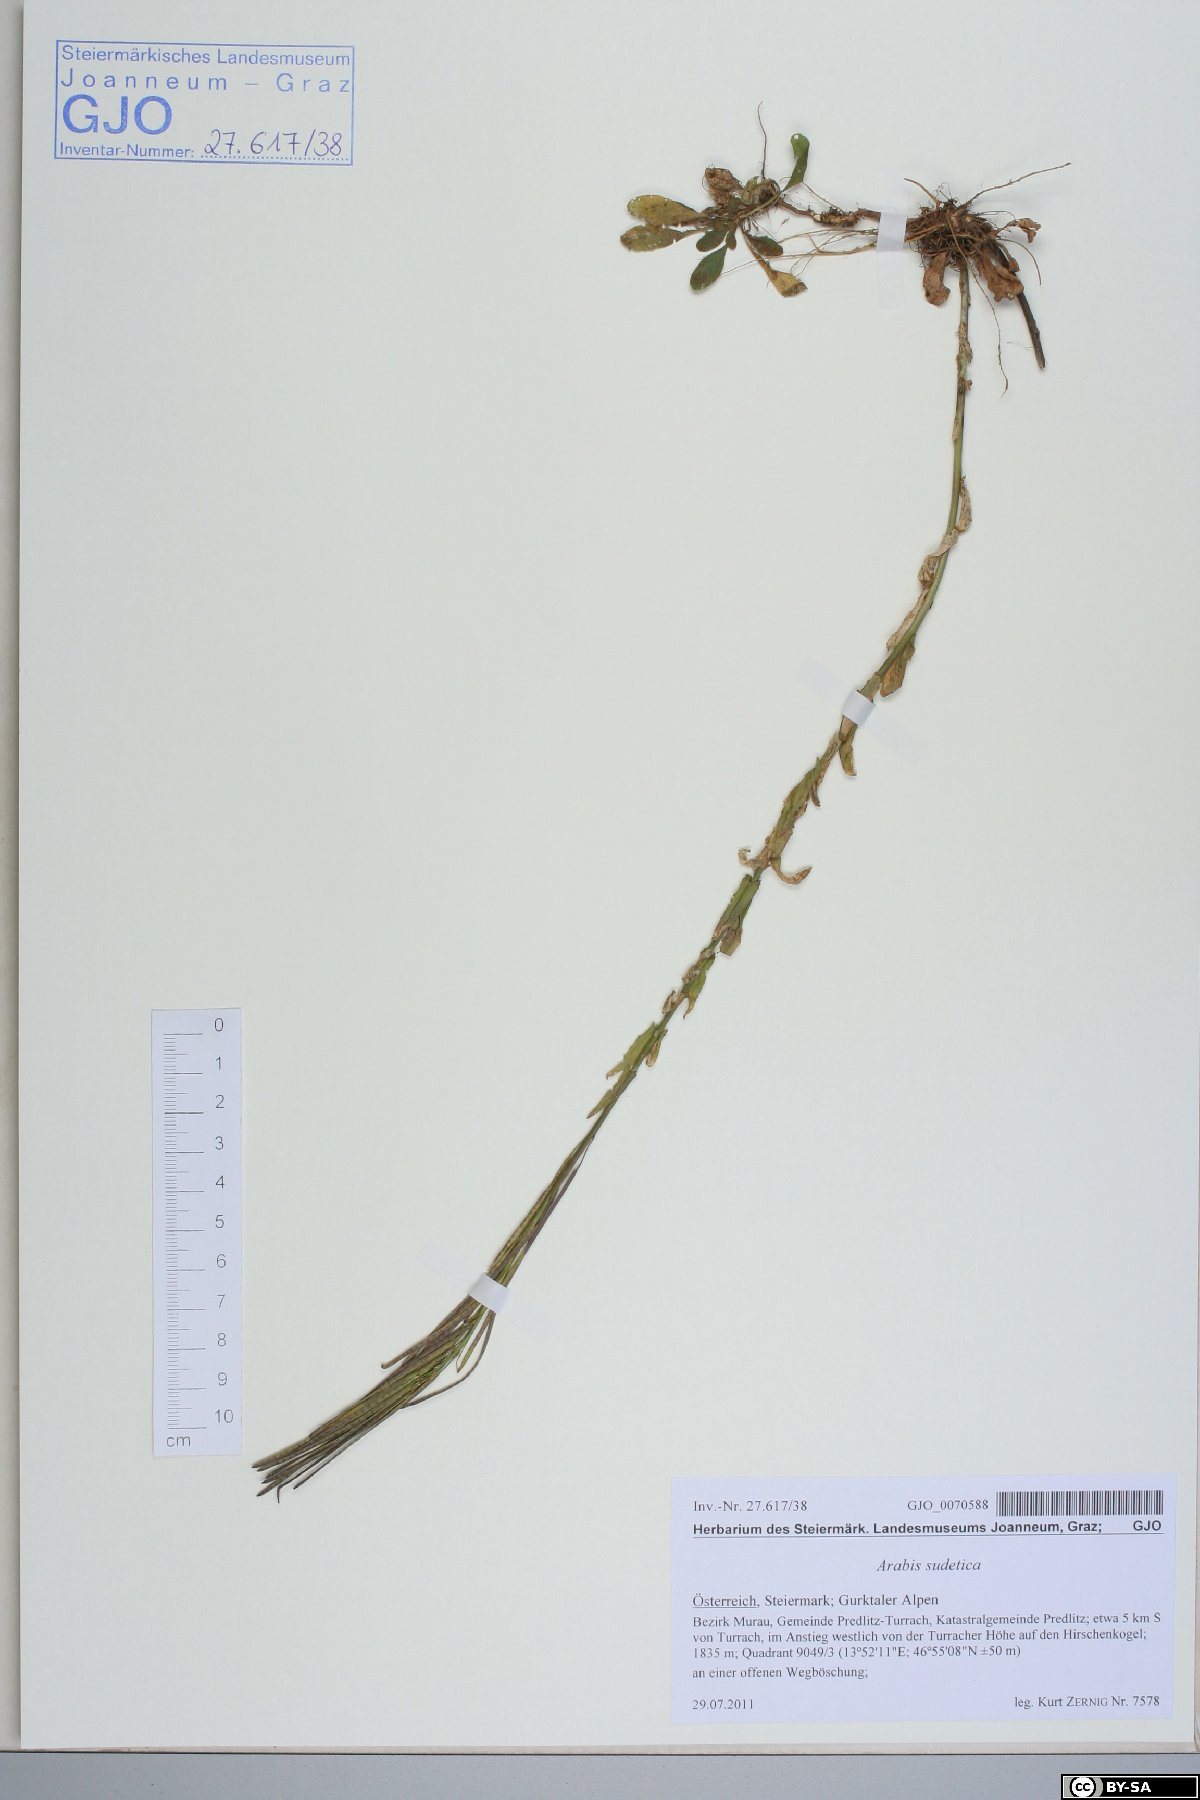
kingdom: Plantae
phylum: Tracheophyta
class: Magnoliopsida
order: Brassicales
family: Brassicaceae
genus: Arabis
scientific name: Arabis sudetica
